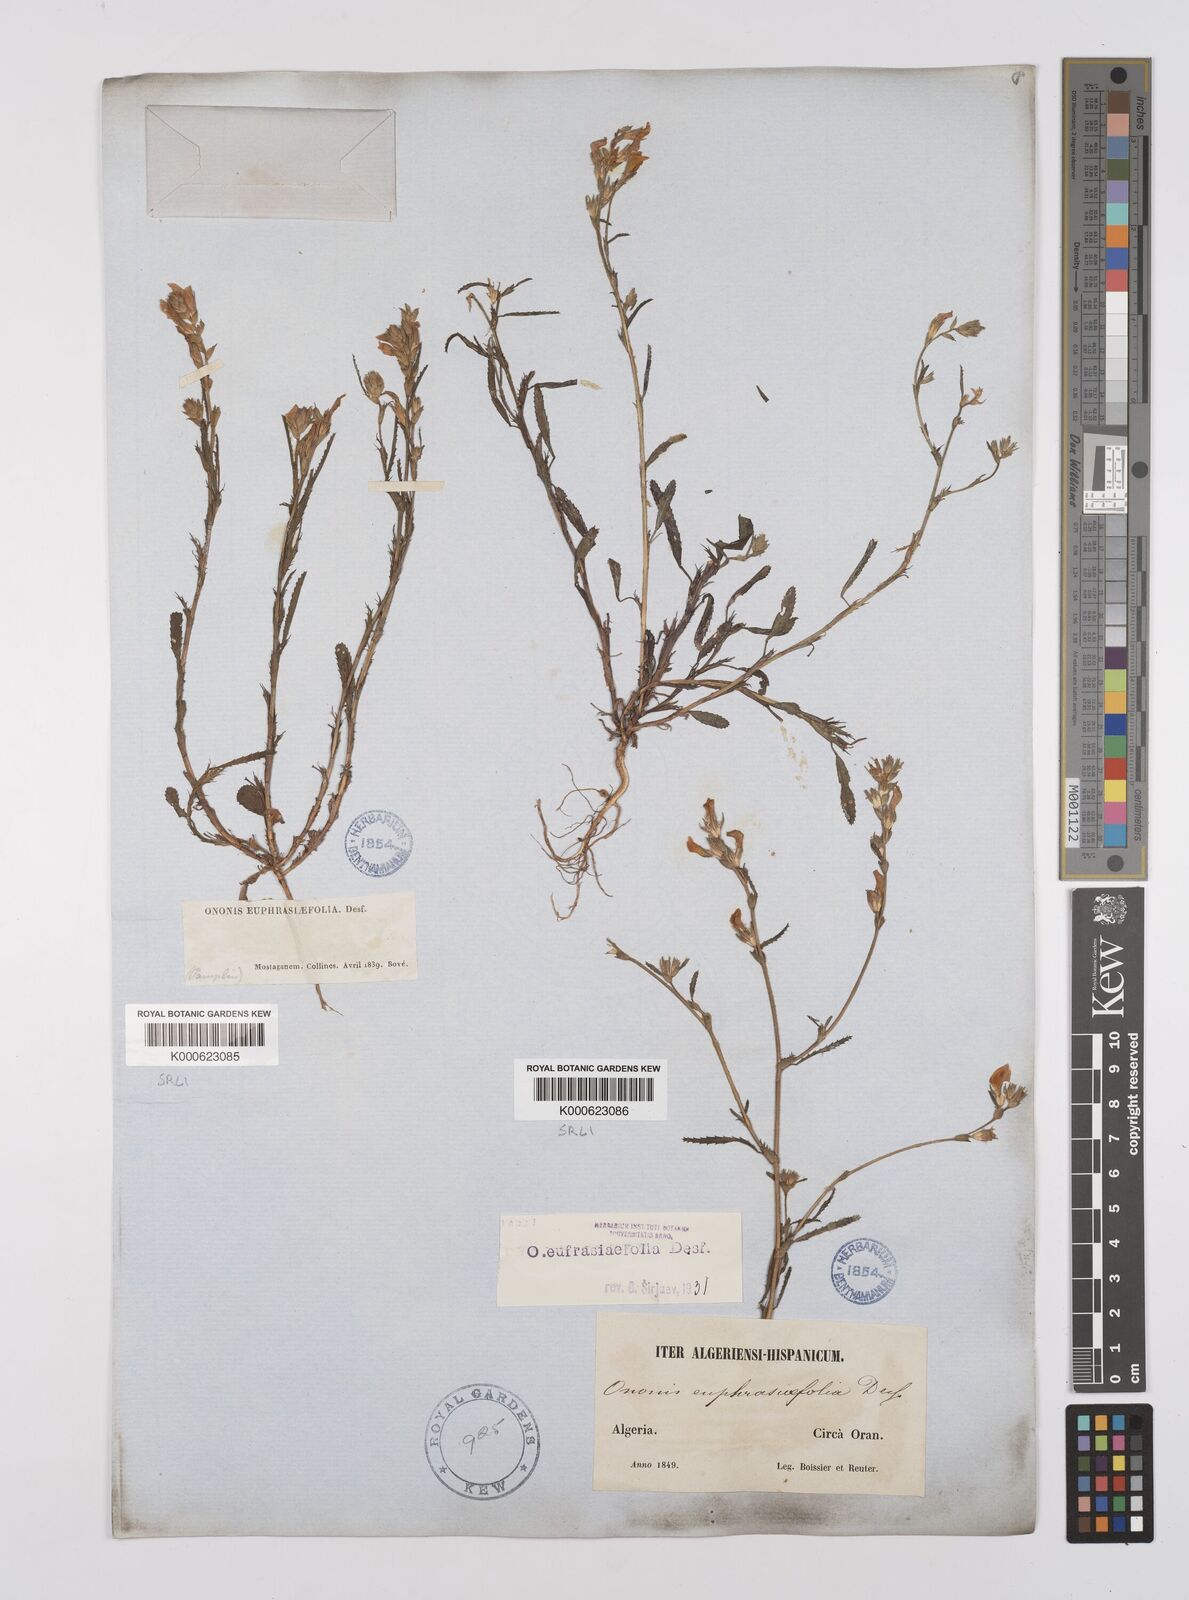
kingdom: Plantae
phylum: Tracheophyta
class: Magnoliopsida
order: Fabales
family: Fabaceae
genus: Ononis
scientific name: Ononis
